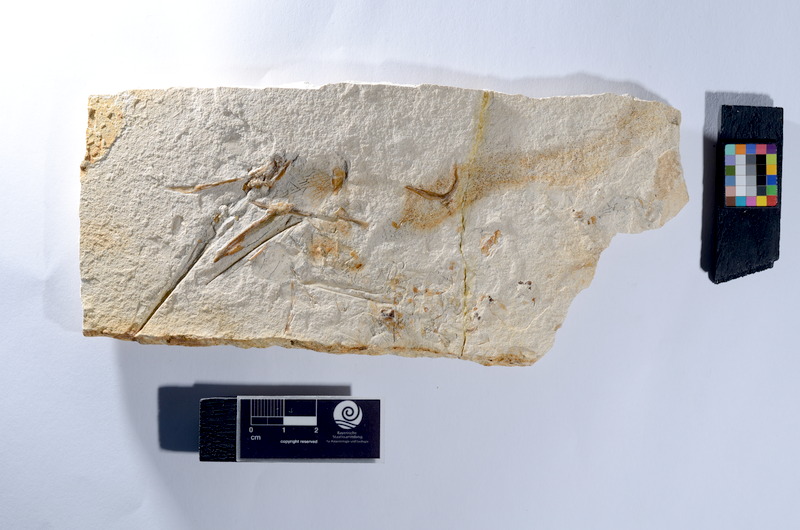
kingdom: Animalia
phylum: Chordata
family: Aspidorhynchidae
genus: Belonostomus
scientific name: Belonostomus
